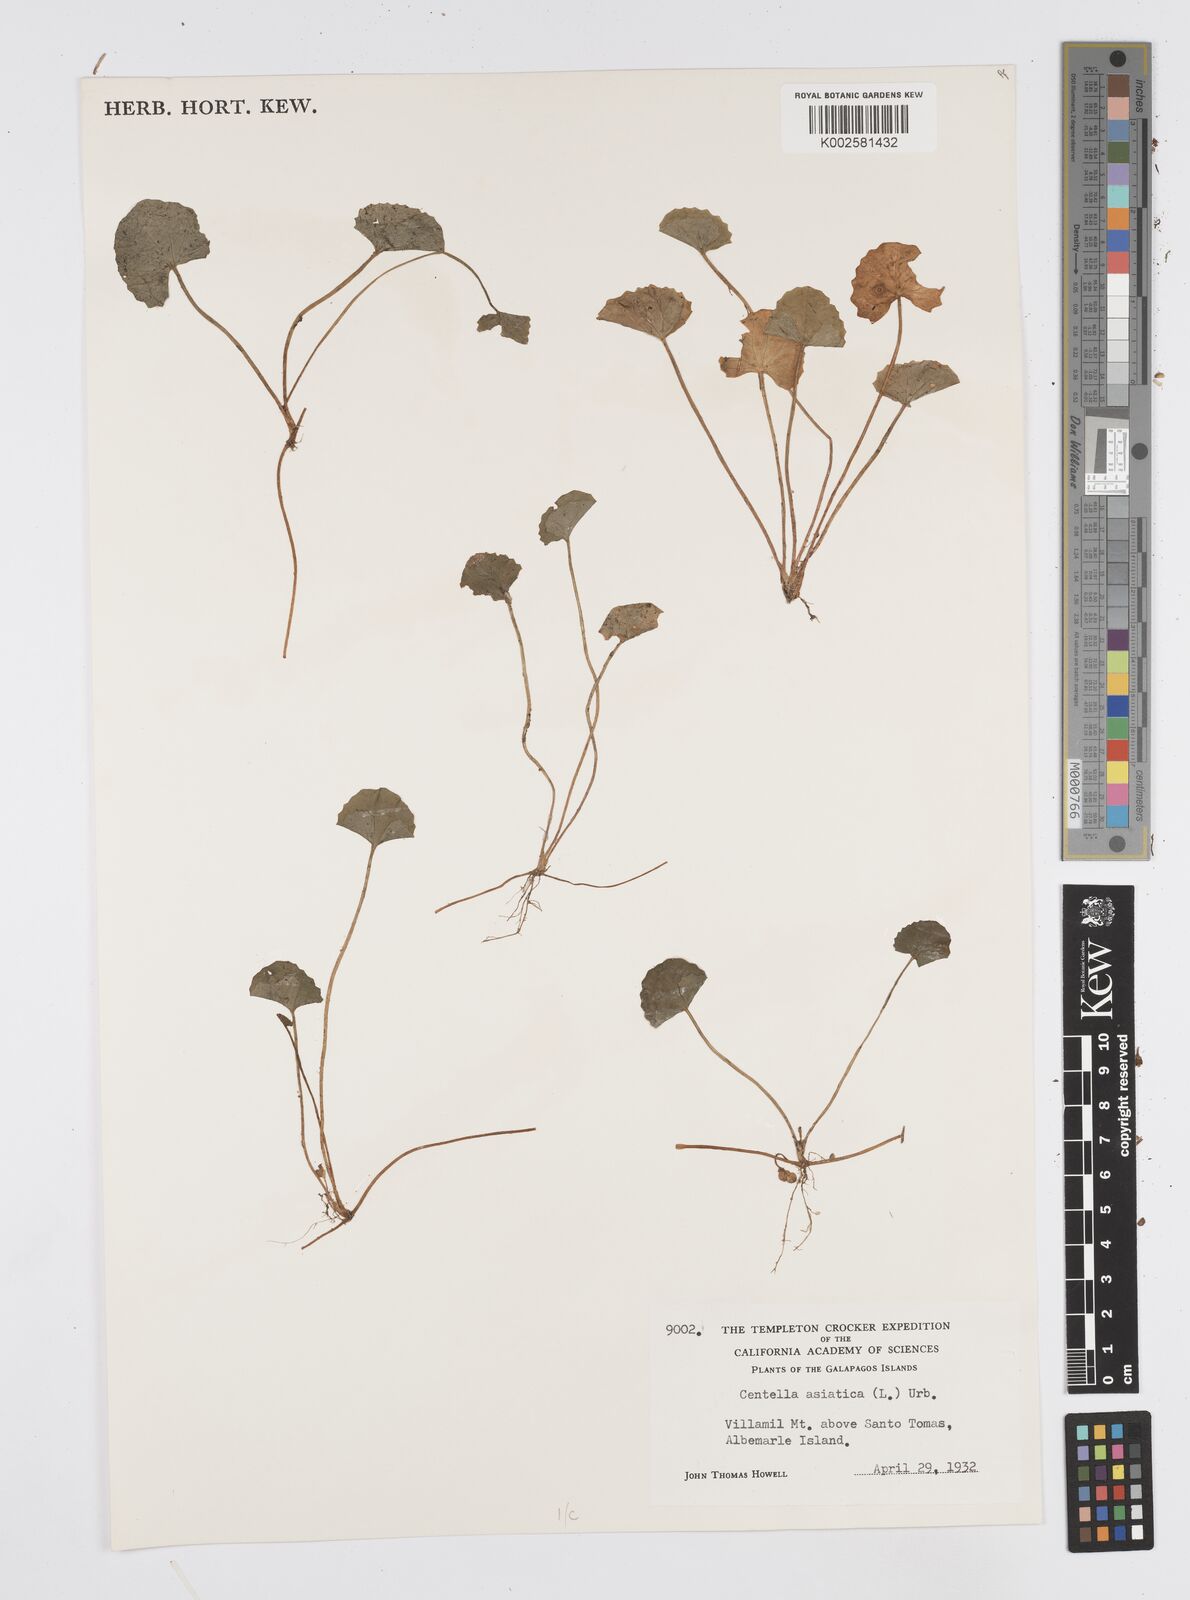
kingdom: Plantae
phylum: Tracheophyta
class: Magnoliopsida
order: Apiales
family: Apiaceae
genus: Centella
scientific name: Centella asiatica
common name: Spadeleaf
